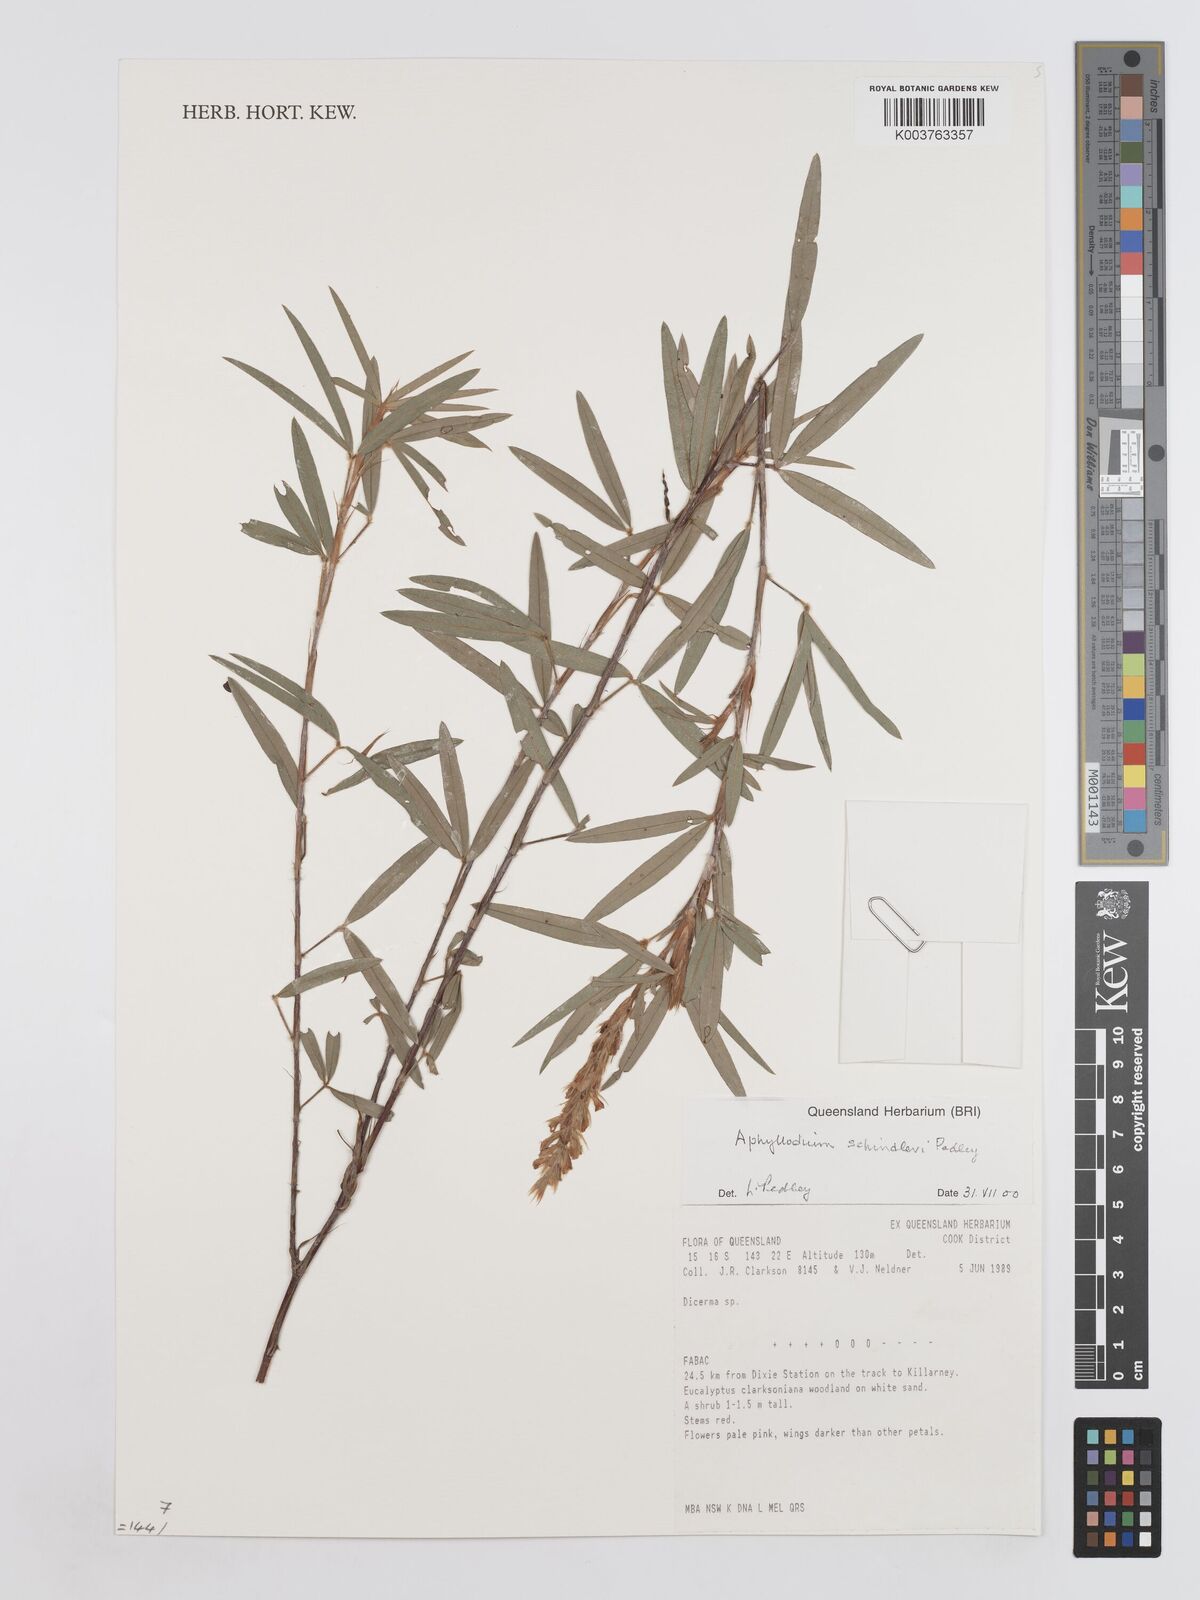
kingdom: Plantae
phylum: Tracheophyta
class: Magnoliopsida
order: Fabales
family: Fabaceae
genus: Hedysarum
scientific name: Hedysarum
